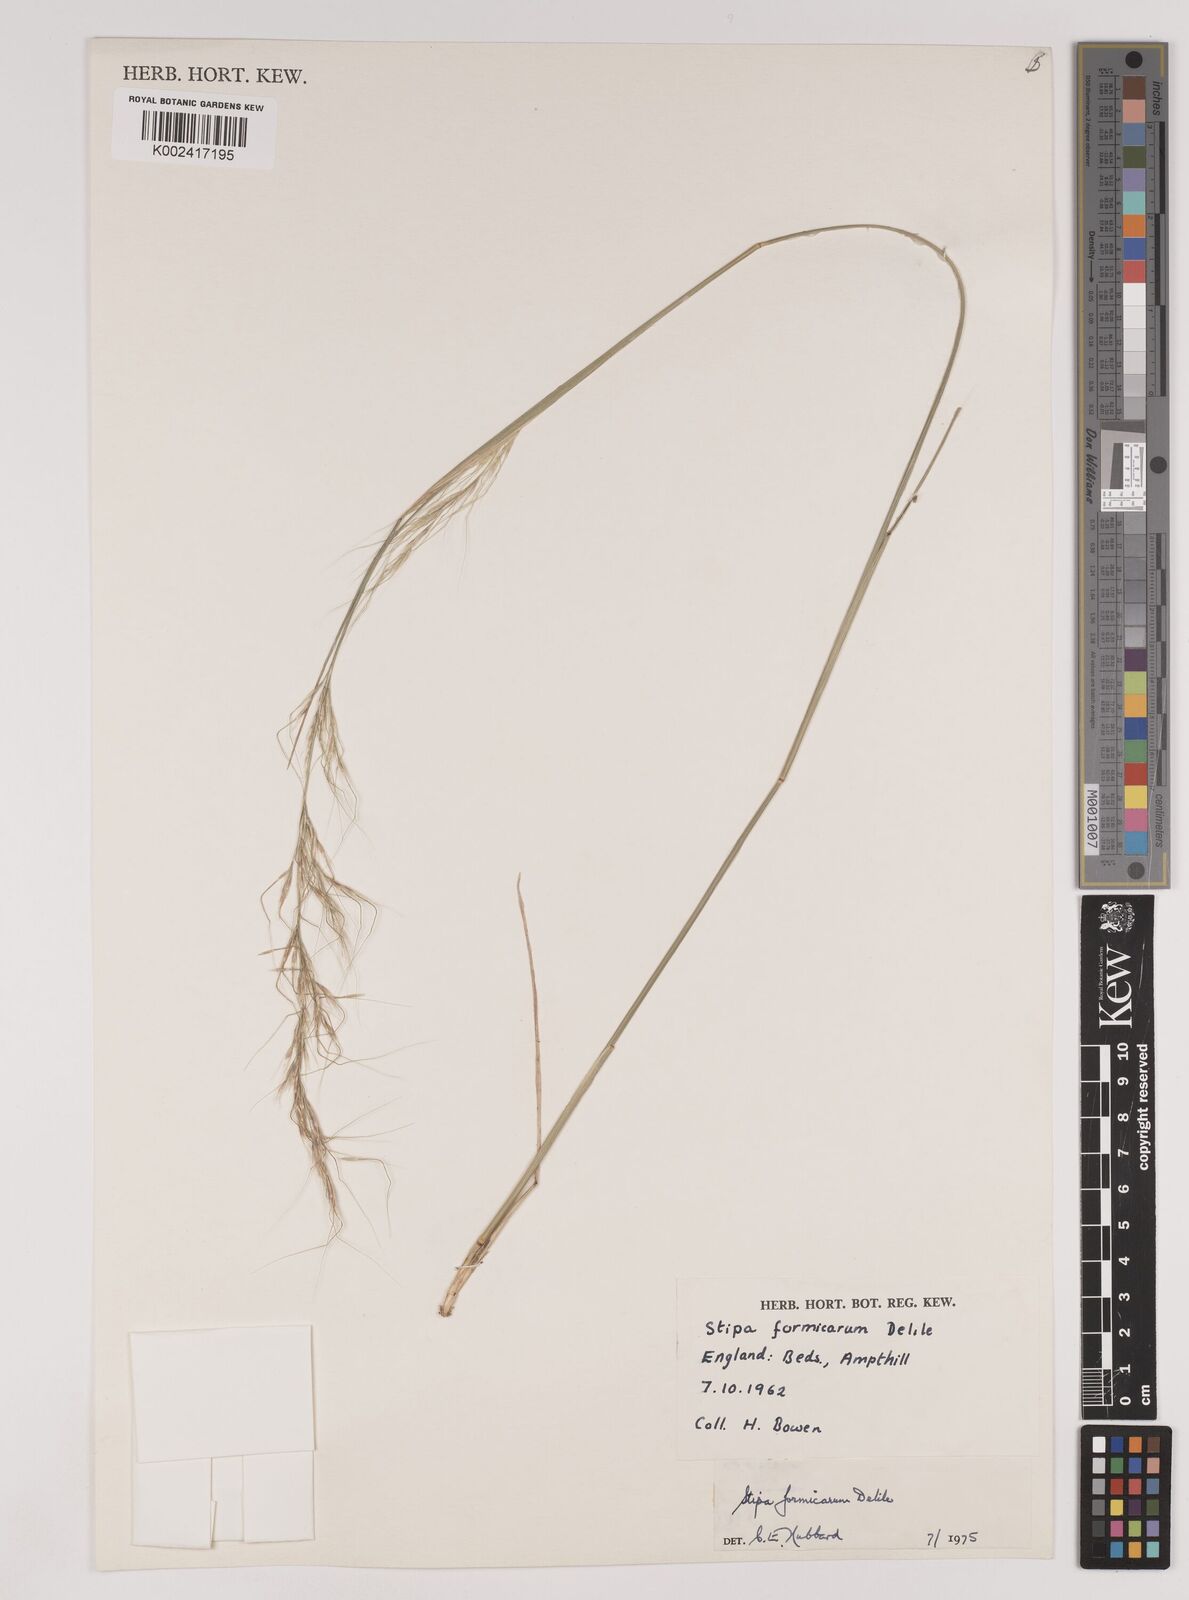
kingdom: Plantae
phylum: Tracheophyta
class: Liliopsida
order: Poales
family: Poaceae
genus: Nassella
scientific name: Nassella formicarum
